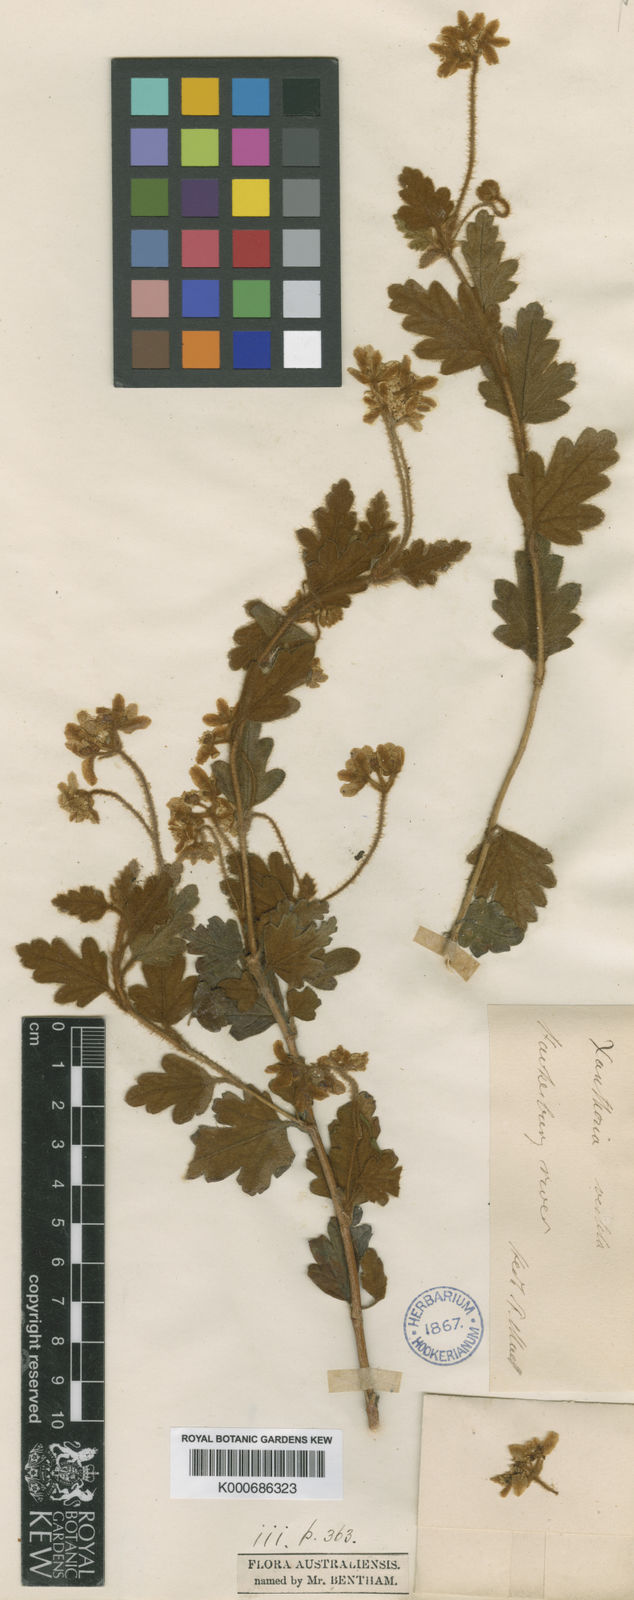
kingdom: Plantae
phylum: Tracheophyta
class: Magnoliopsida
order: Apiales
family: Apiaceae
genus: Xanthosia
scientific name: Xanthosia pilosa
